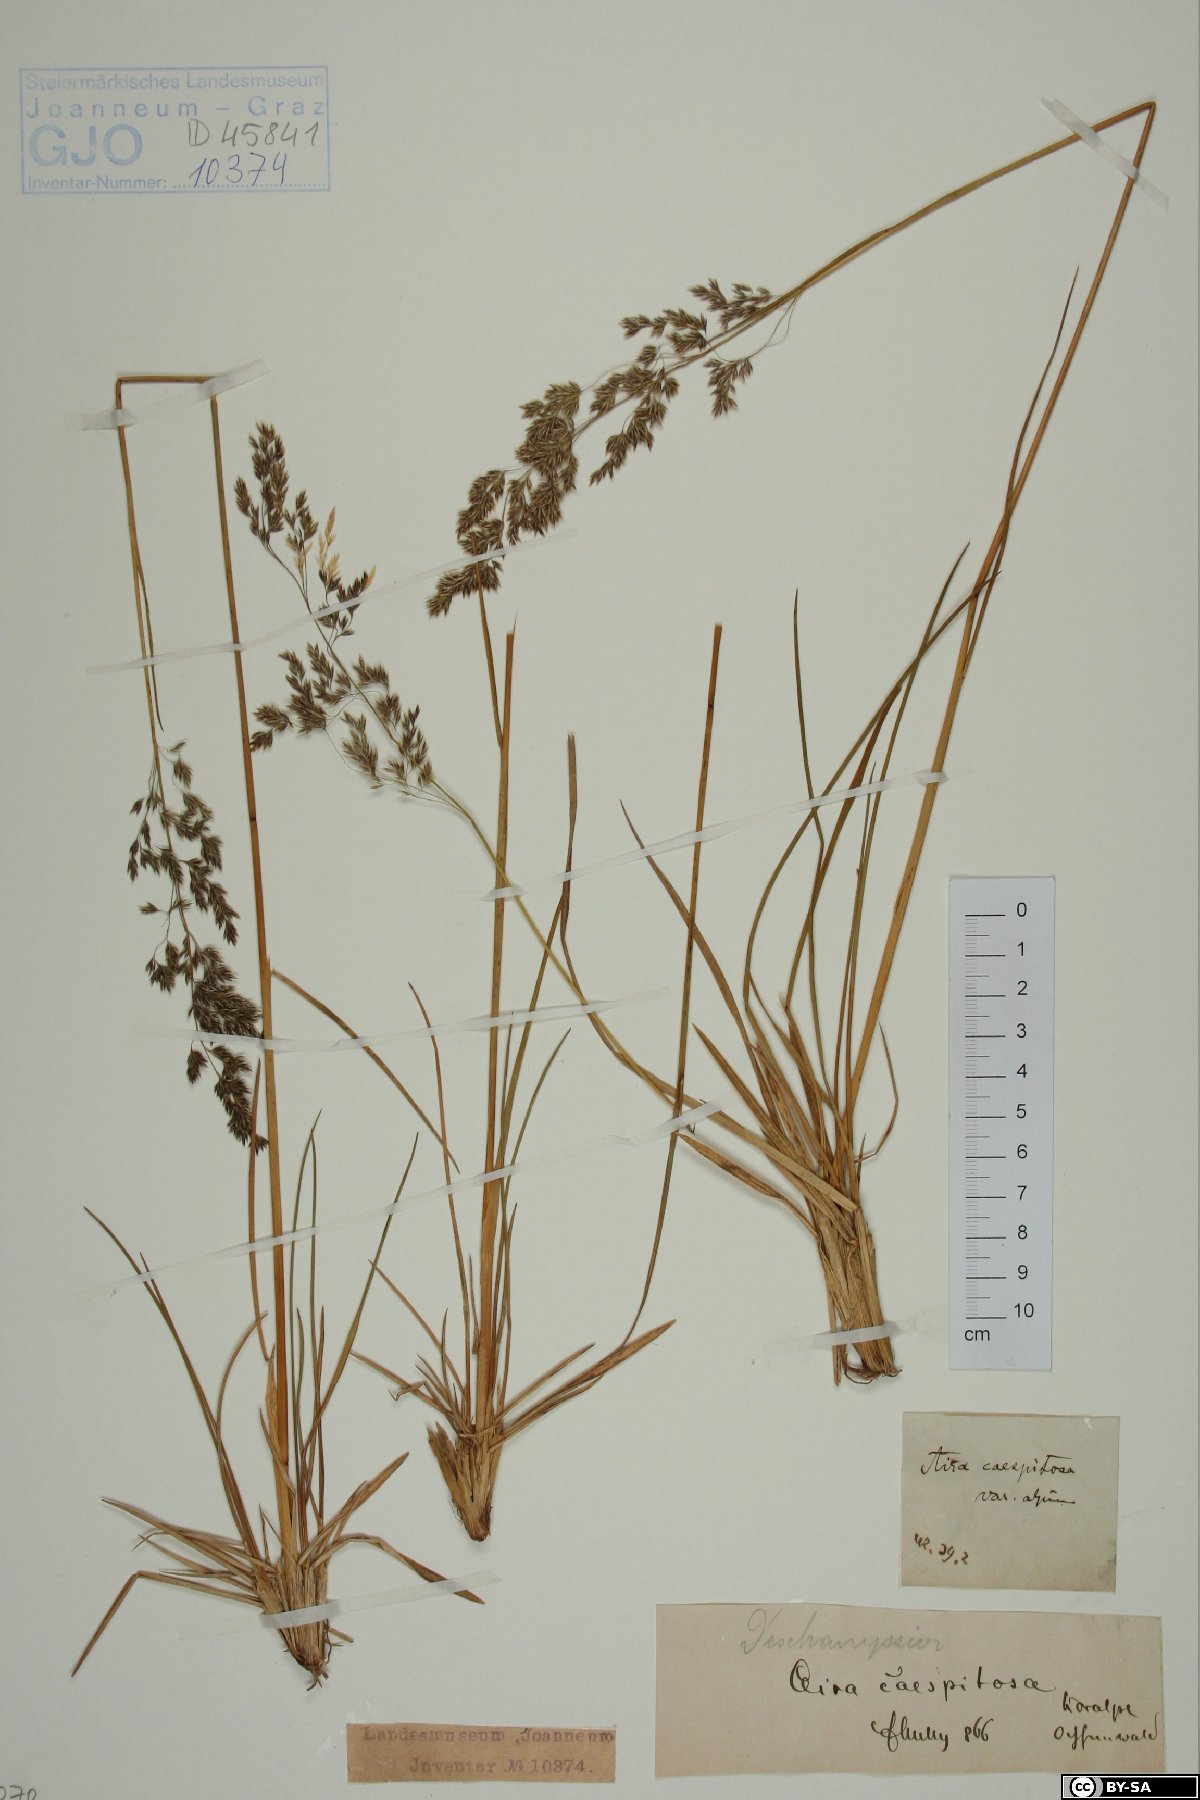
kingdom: Plantae
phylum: Tracheophyta
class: Liliopsida
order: Poales
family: Poaceae
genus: Deschampsia
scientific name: Deschampsia cespitosa
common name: Tufted hair-grass
